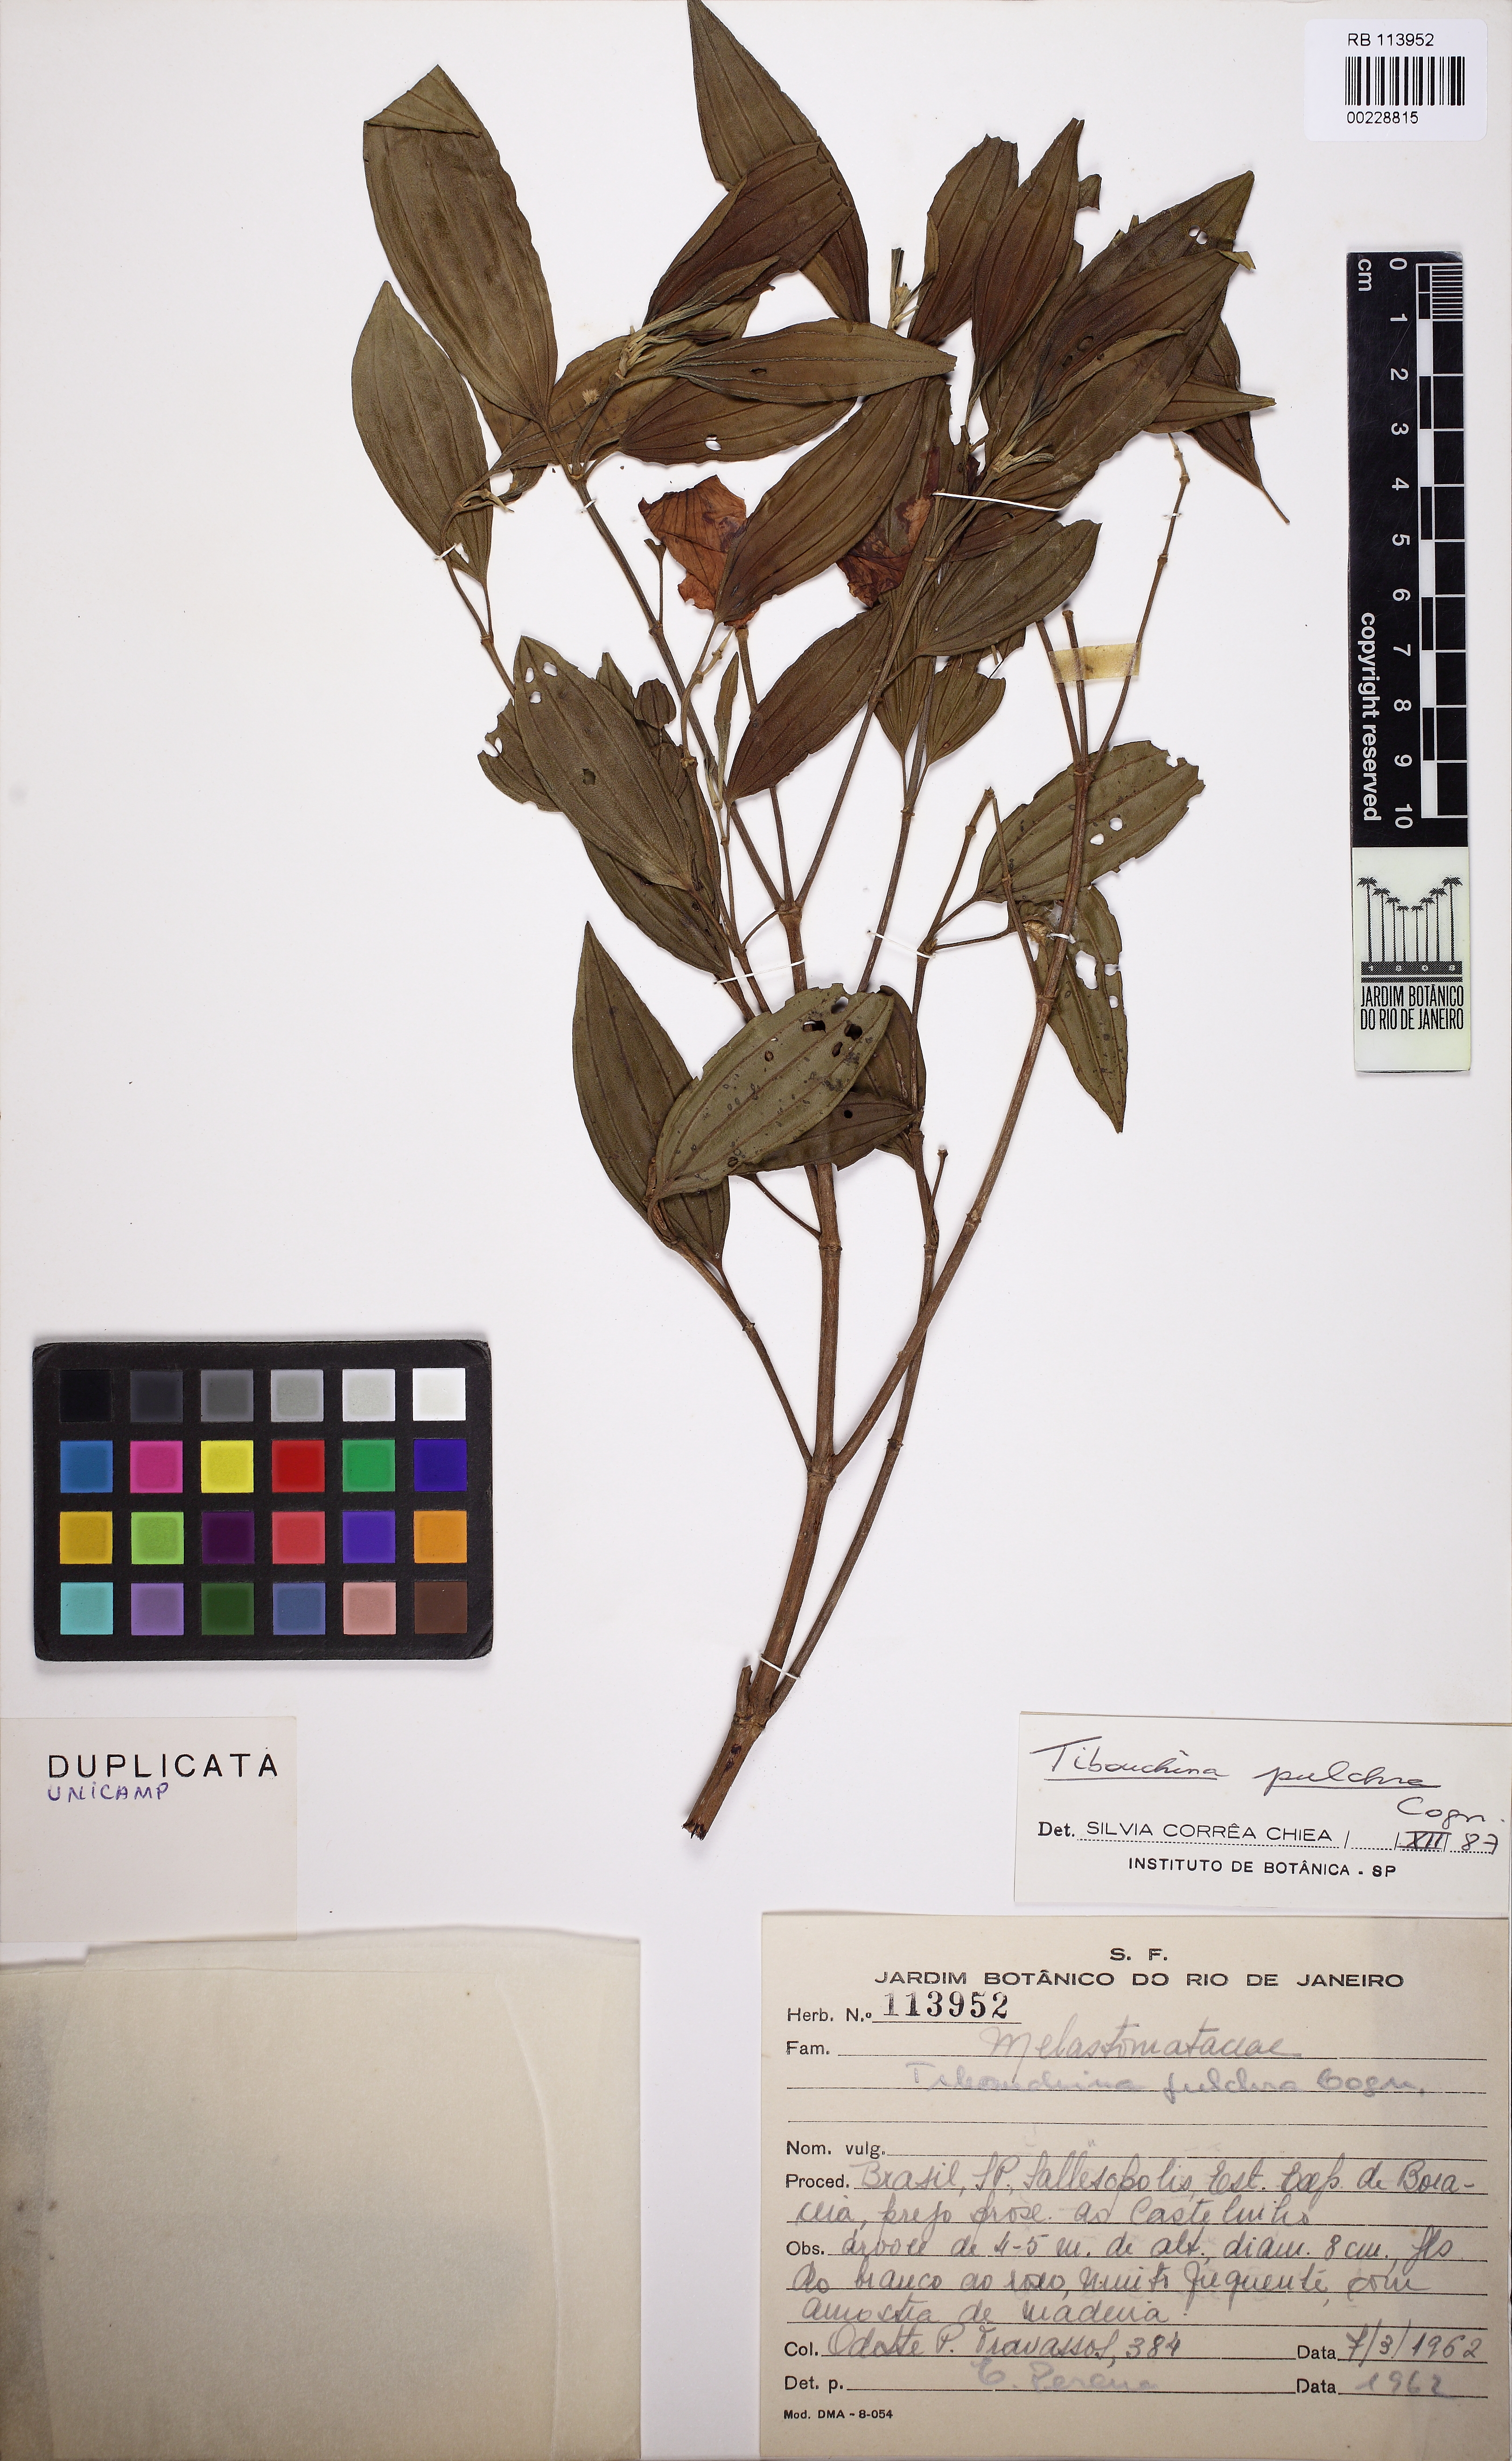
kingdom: Plantae
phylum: Tracheophyta
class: Magnoliopsida
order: Myrtales
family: Melastomataceae
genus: Pleroma
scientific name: Pleroma raddianum
